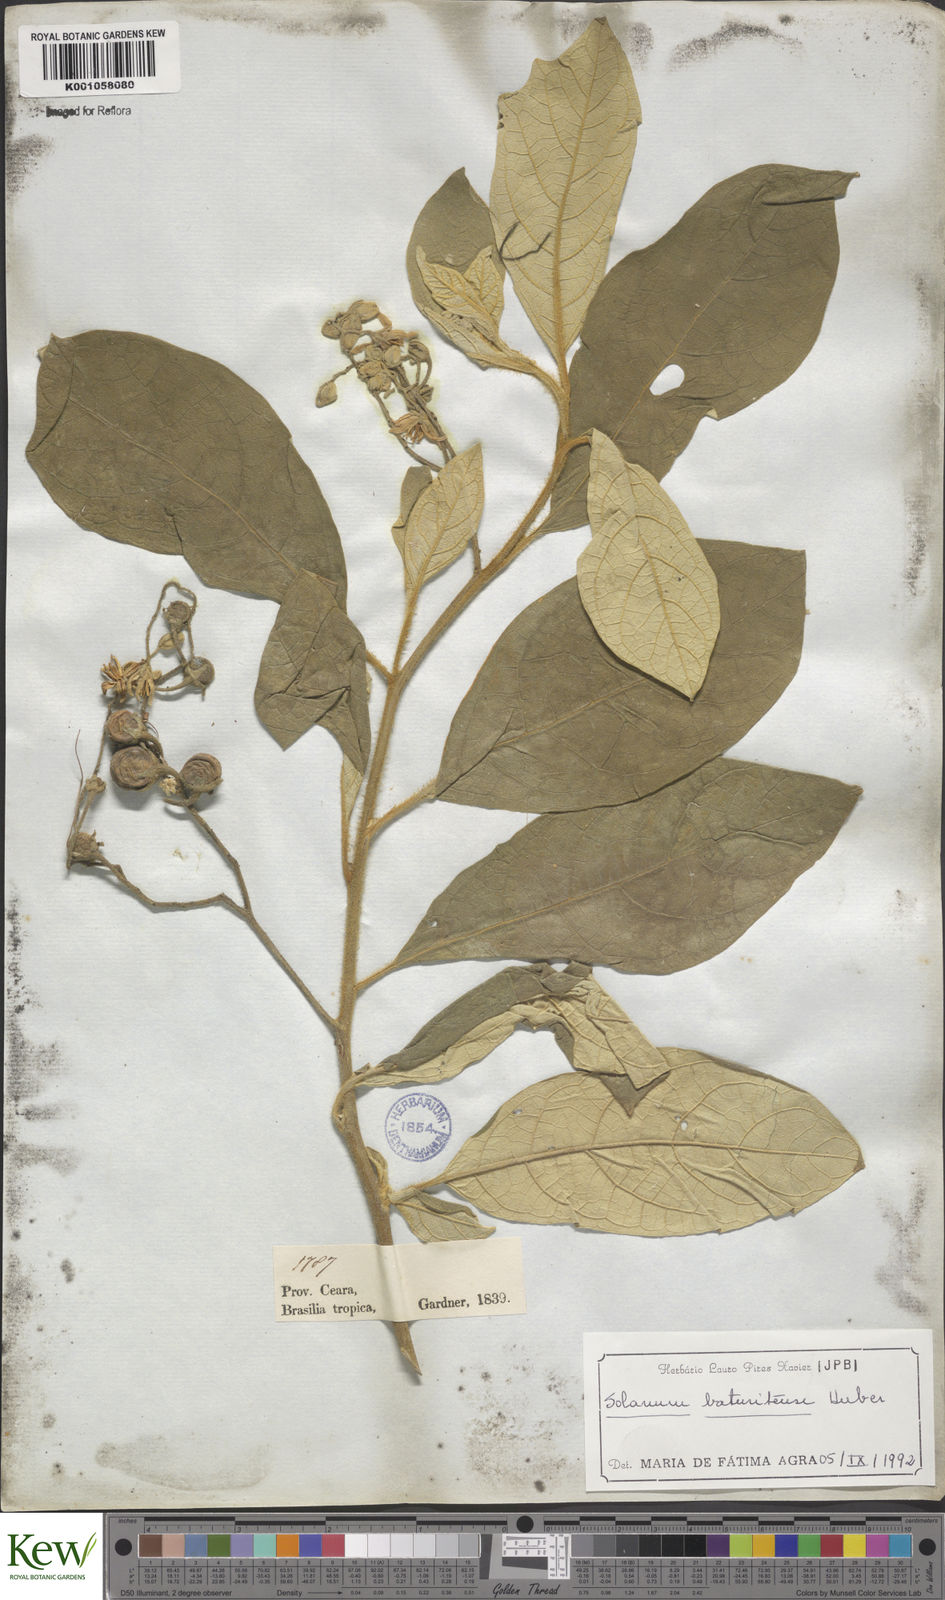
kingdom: Plantae
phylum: Tracheophyta
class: Magnoliopsida
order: Solanales
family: Solanaceae
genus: Solanum
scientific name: Solanum rhytidoandrum
